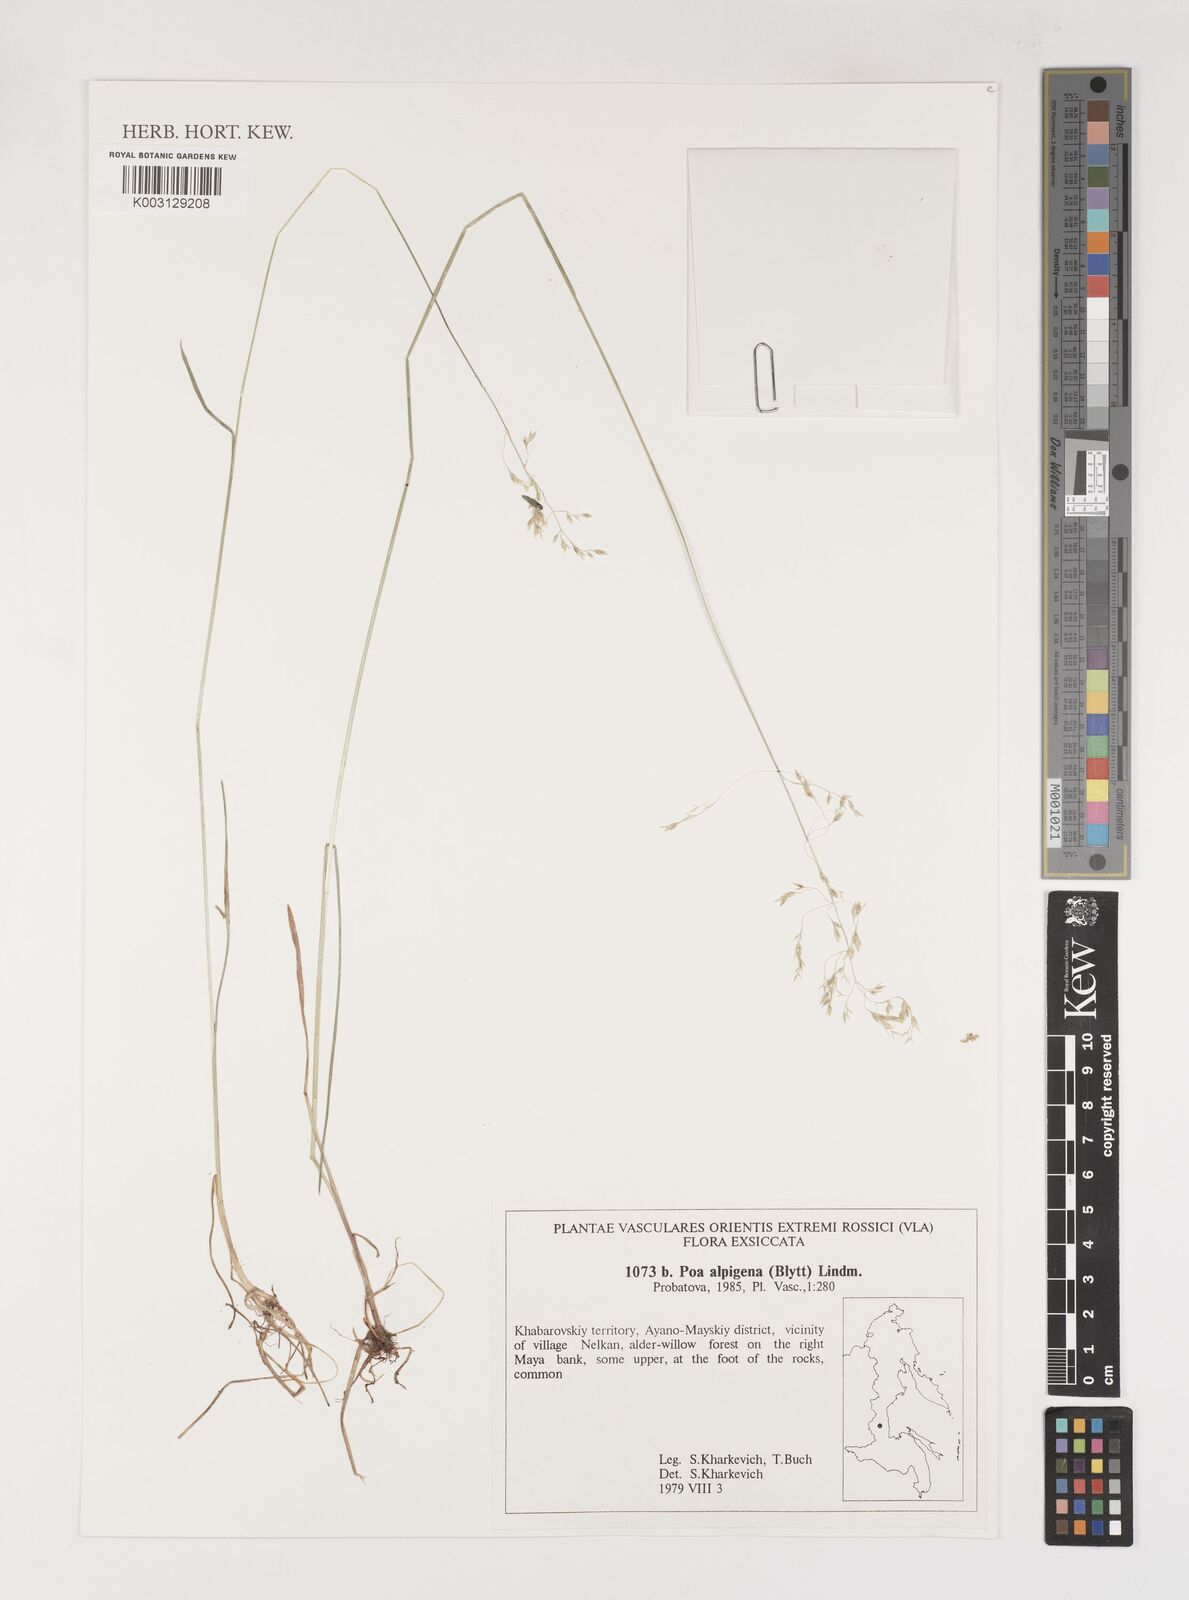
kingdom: Plantae
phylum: Tracheophyta
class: Liliopsida
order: Poales
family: Poaceae
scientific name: Poaceae
